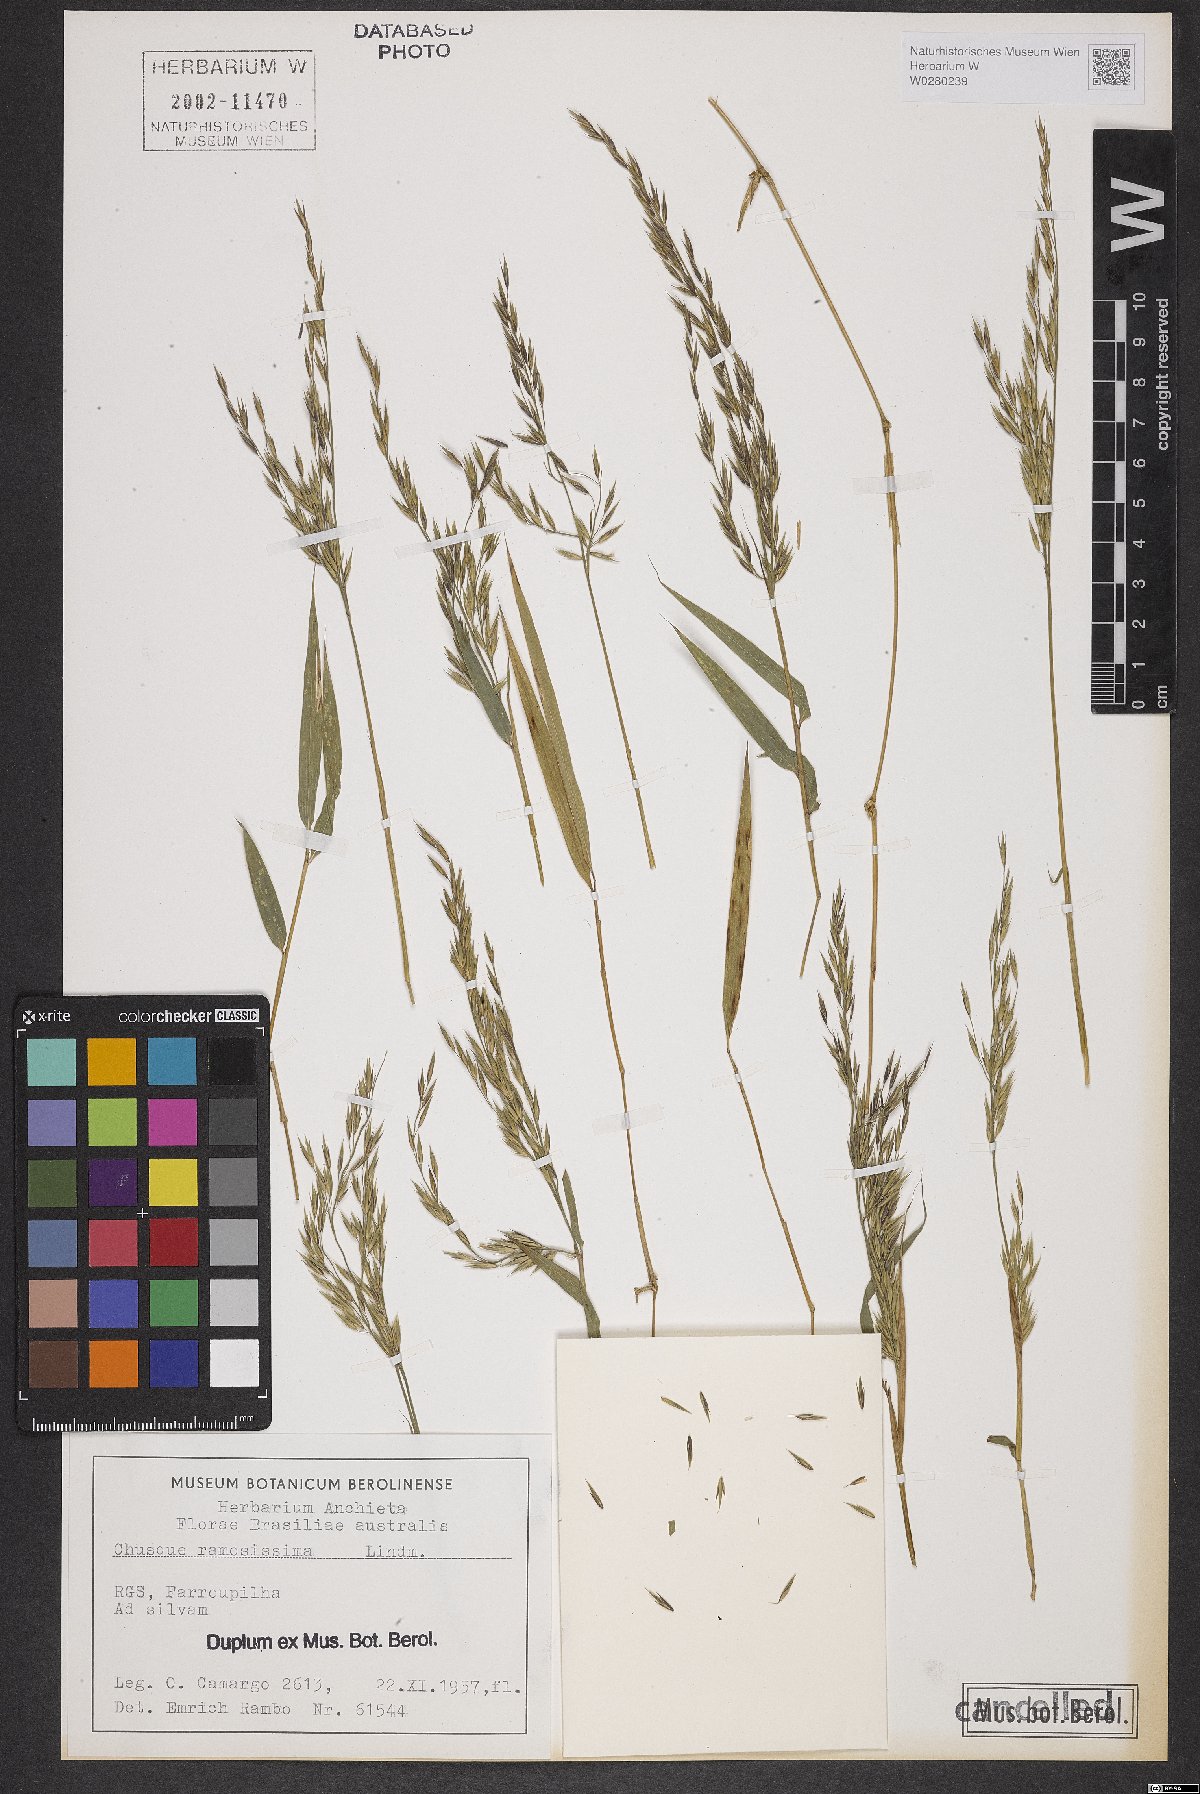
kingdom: Plantae
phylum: Tracheophyta
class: Liliopsida
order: Poales
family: Poaceae
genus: Chusquea
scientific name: Chusquea ramosissima
